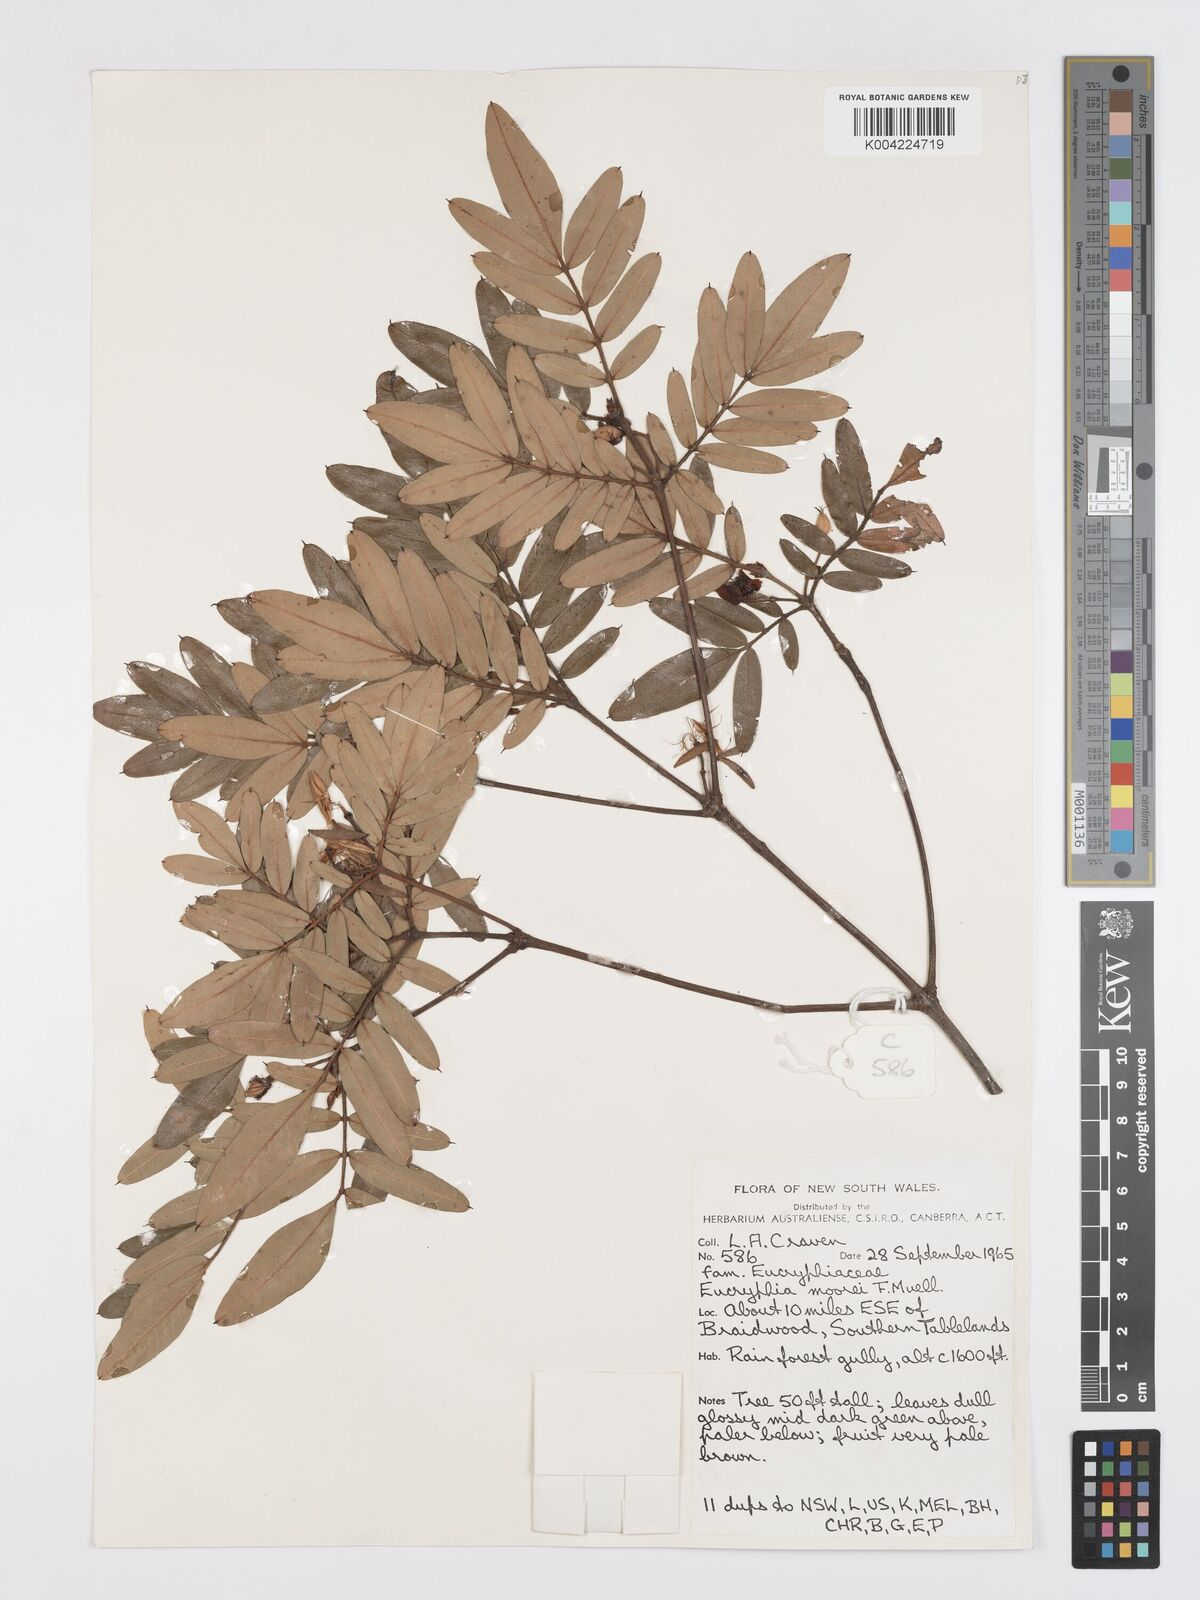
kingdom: Plantae
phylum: Tracheophyta
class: Magnoliopsida
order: Oxalidales
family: Cunoniaceae
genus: Eucryphia
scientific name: Eucryphia moorei
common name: Acacia-plum
